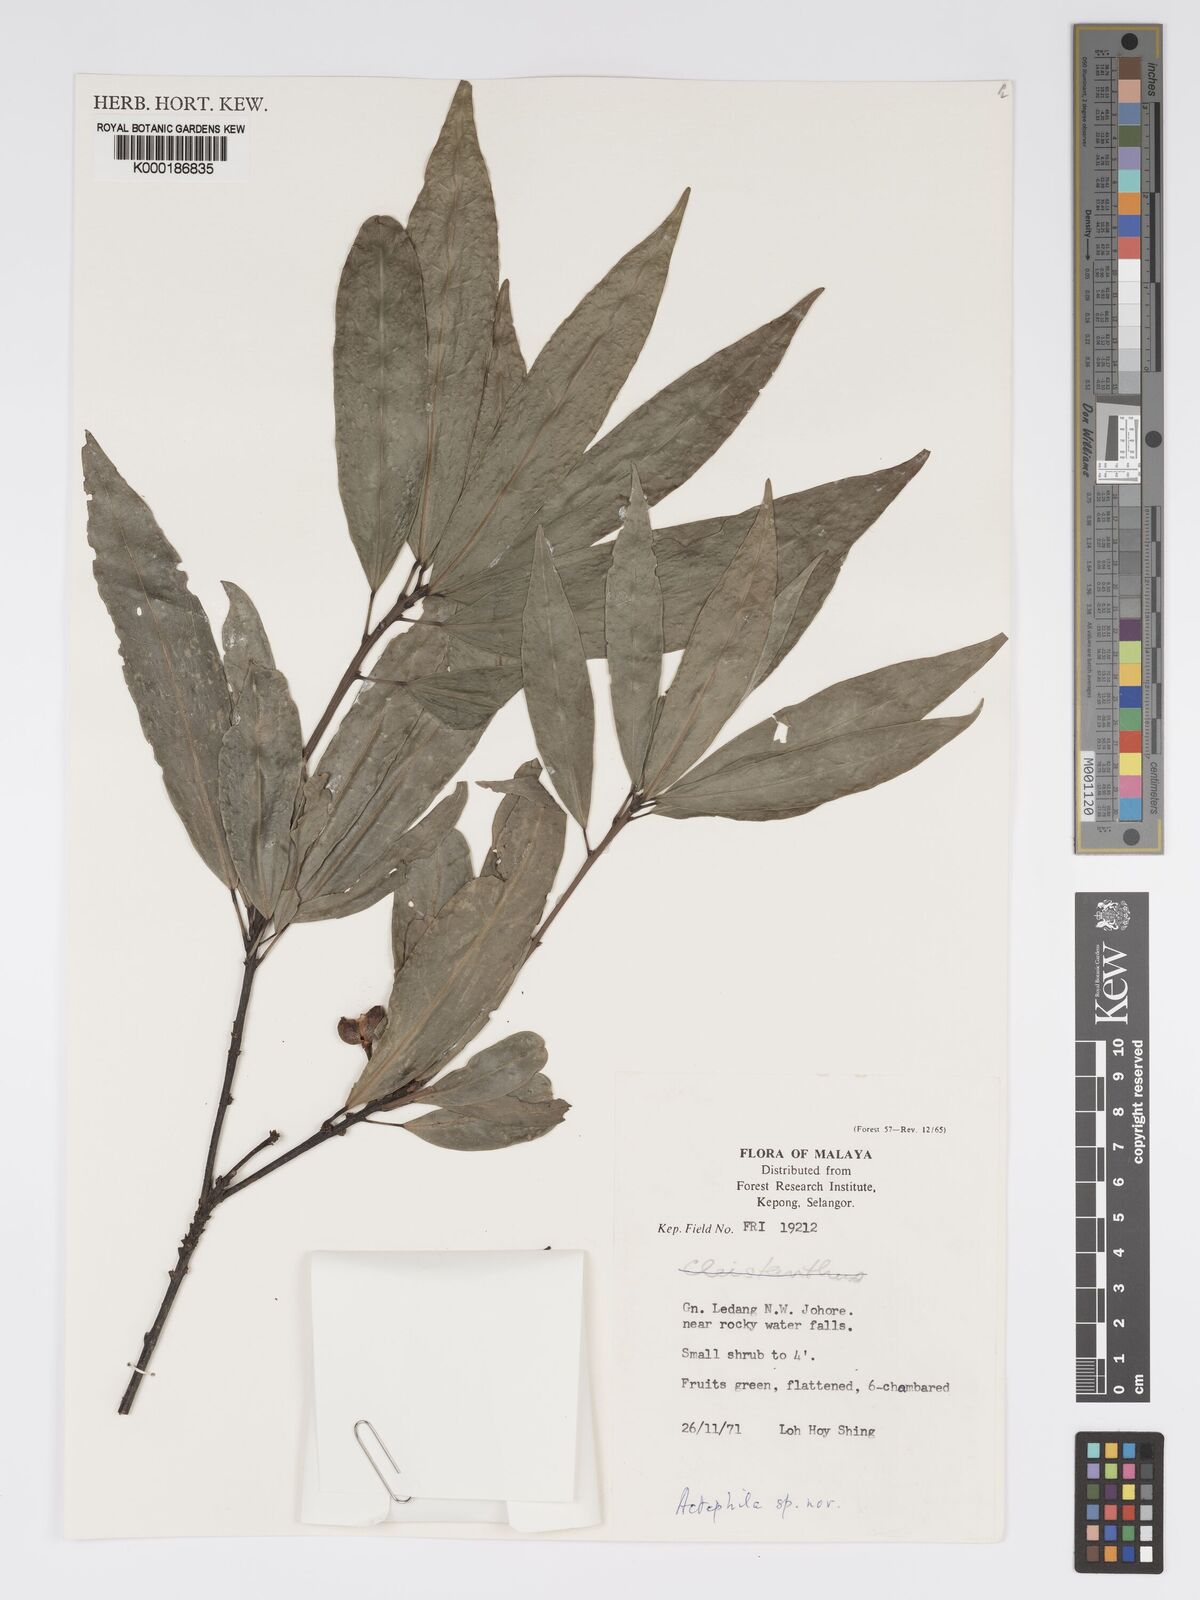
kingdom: Plantae
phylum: Tracheophyta
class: Magnoliopsida
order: Malpighiales
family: Phyllanthaceae
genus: Actephila
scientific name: Actephila
